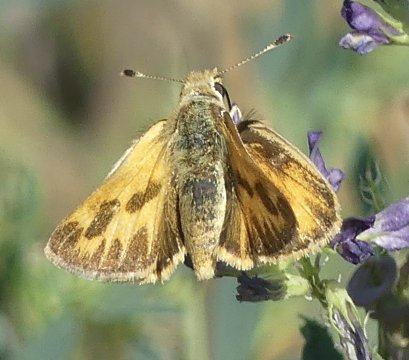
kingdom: Animalia
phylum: Arthropoda
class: Insecta
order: Lepidoptera
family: Hesperiidae
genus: Ochlodes
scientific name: Ochlodes sylvanoides
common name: Woodland Skipper
